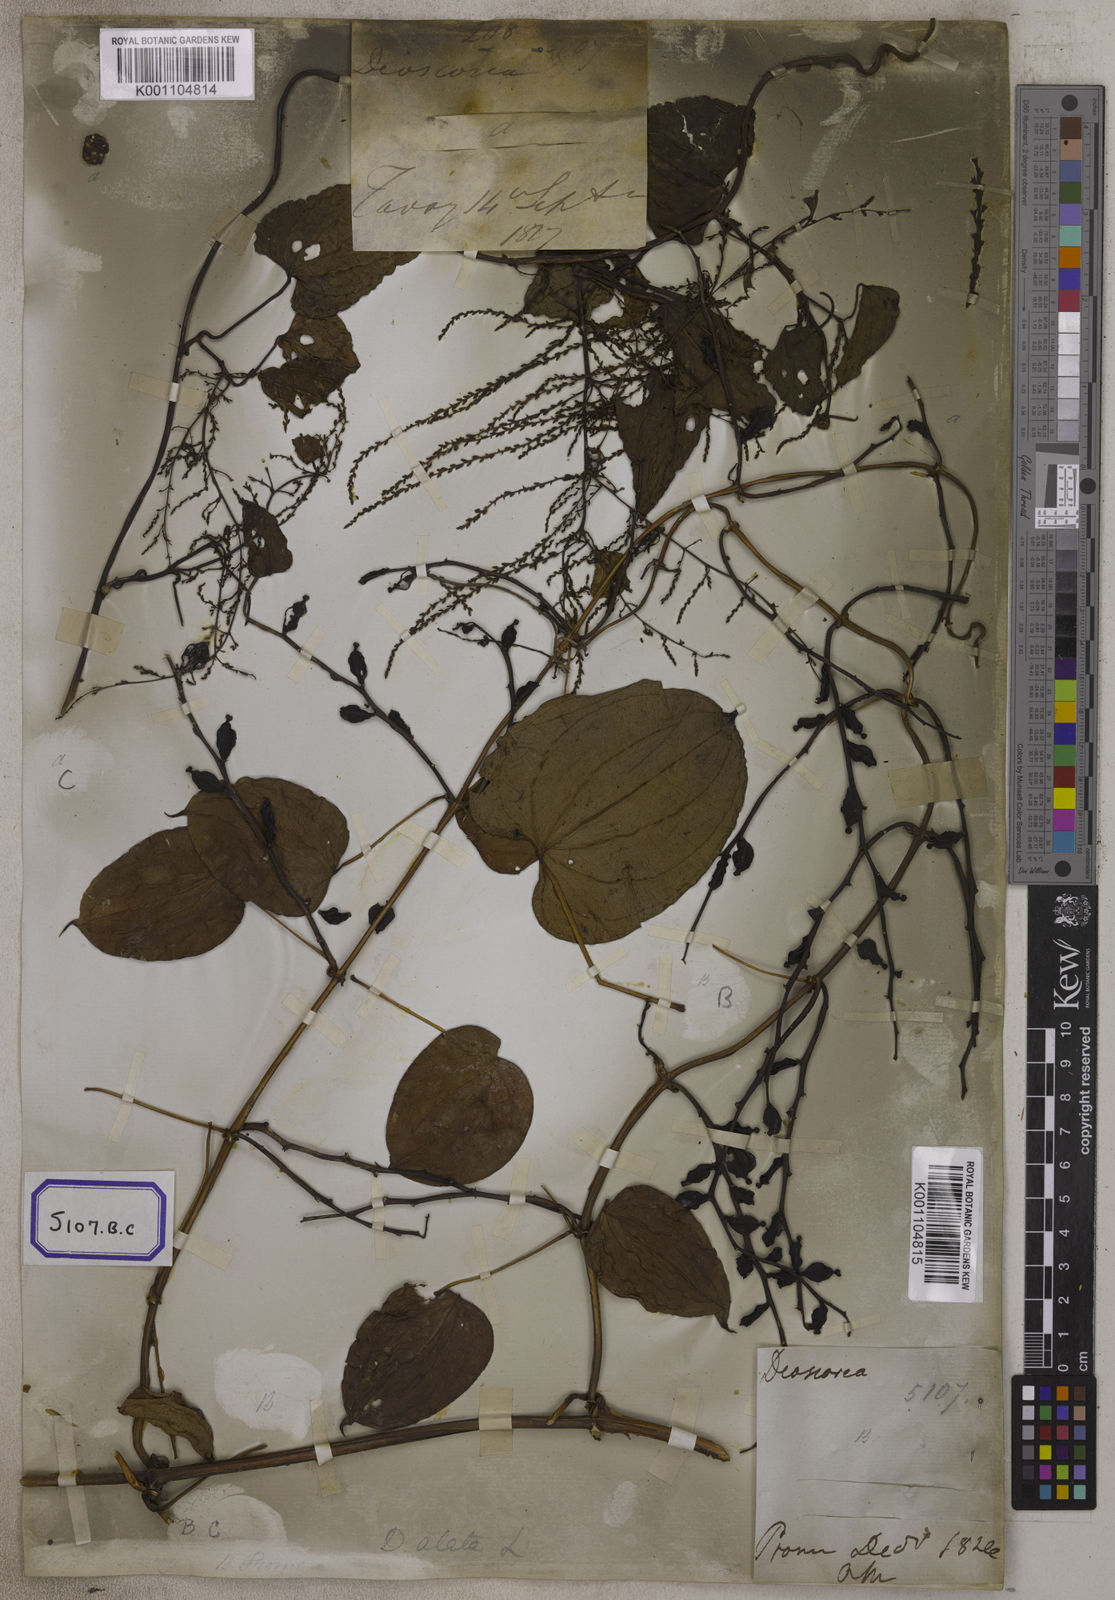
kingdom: Plantae
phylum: Tracheophyta
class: Liliopsida
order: Dioscoreales
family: Dioscoreaceae
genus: Dioscorea
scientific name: Dioscorea
